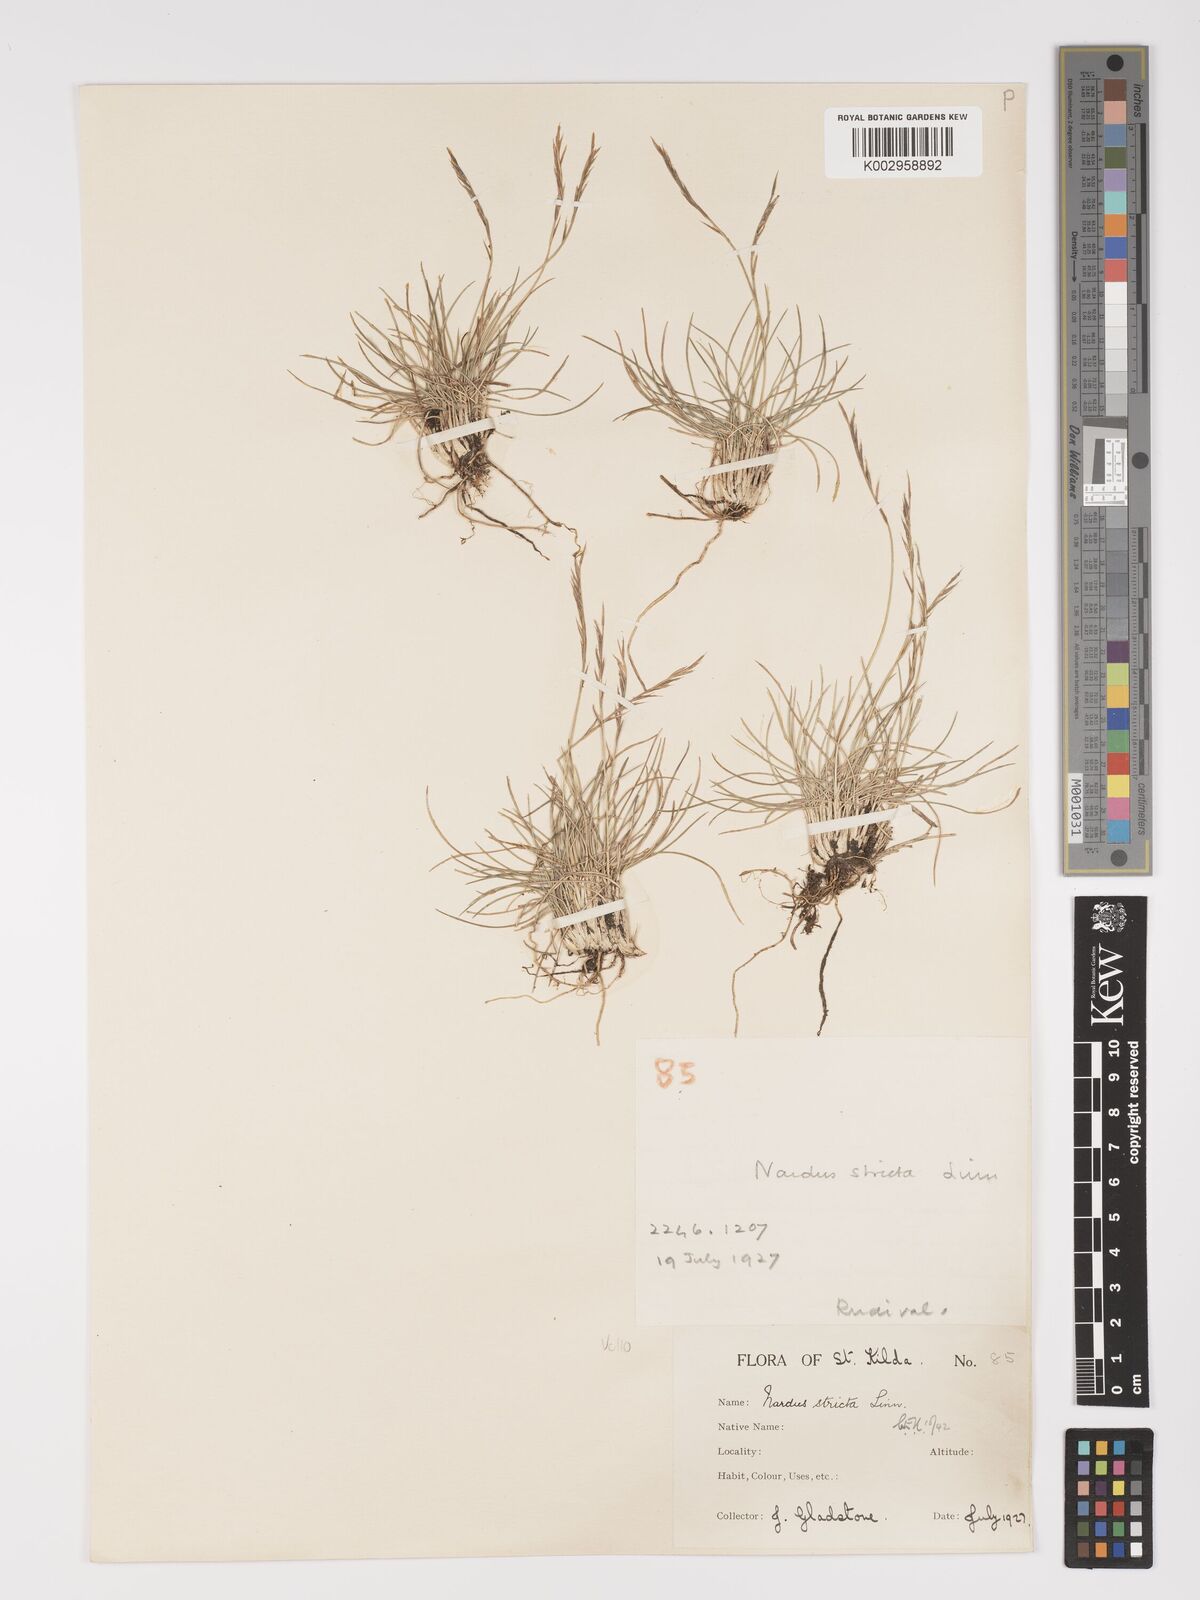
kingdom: Plantae
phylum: Tracheophyta
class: Liliopsida
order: Poales
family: Poaceae
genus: Nardus
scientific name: Nardus stricta
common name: Mat-grass
